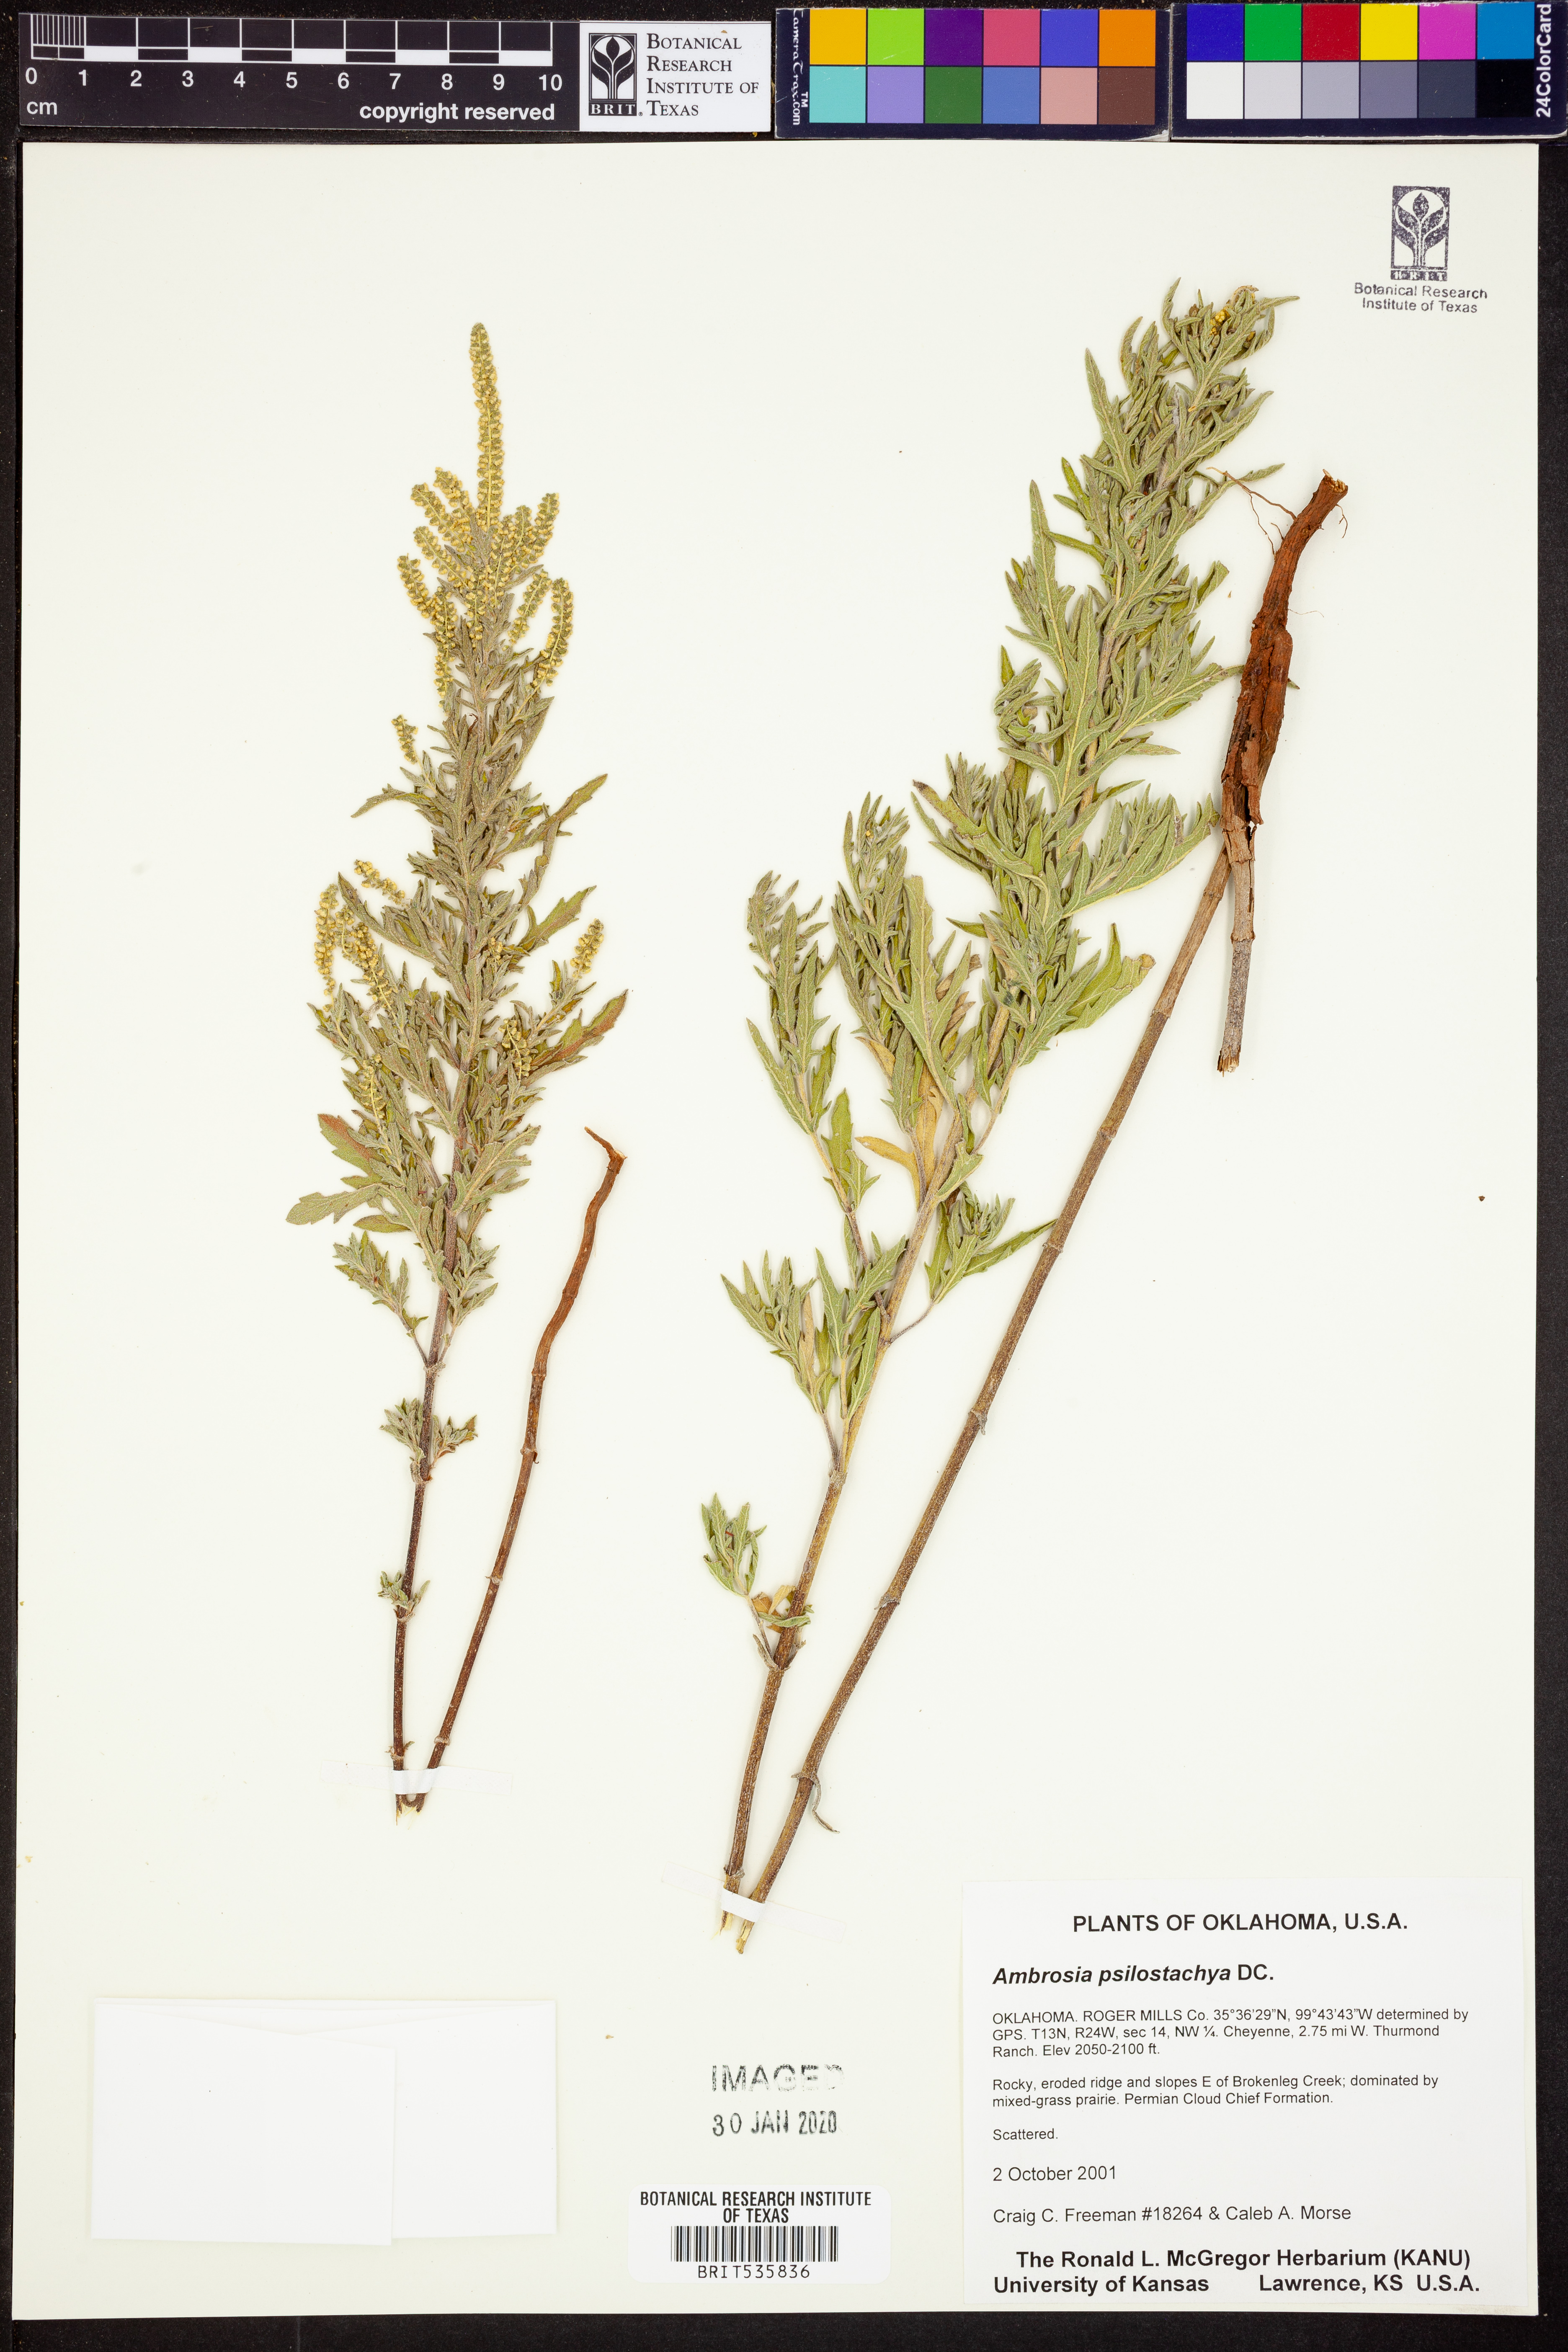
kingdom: Plantae
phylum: Tracheophyta
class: Magnoliopsida
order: Asterales
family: Asteraceae
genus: Ambrosia
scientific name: Ambrosia psilostachya
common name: Perennial ragweed
